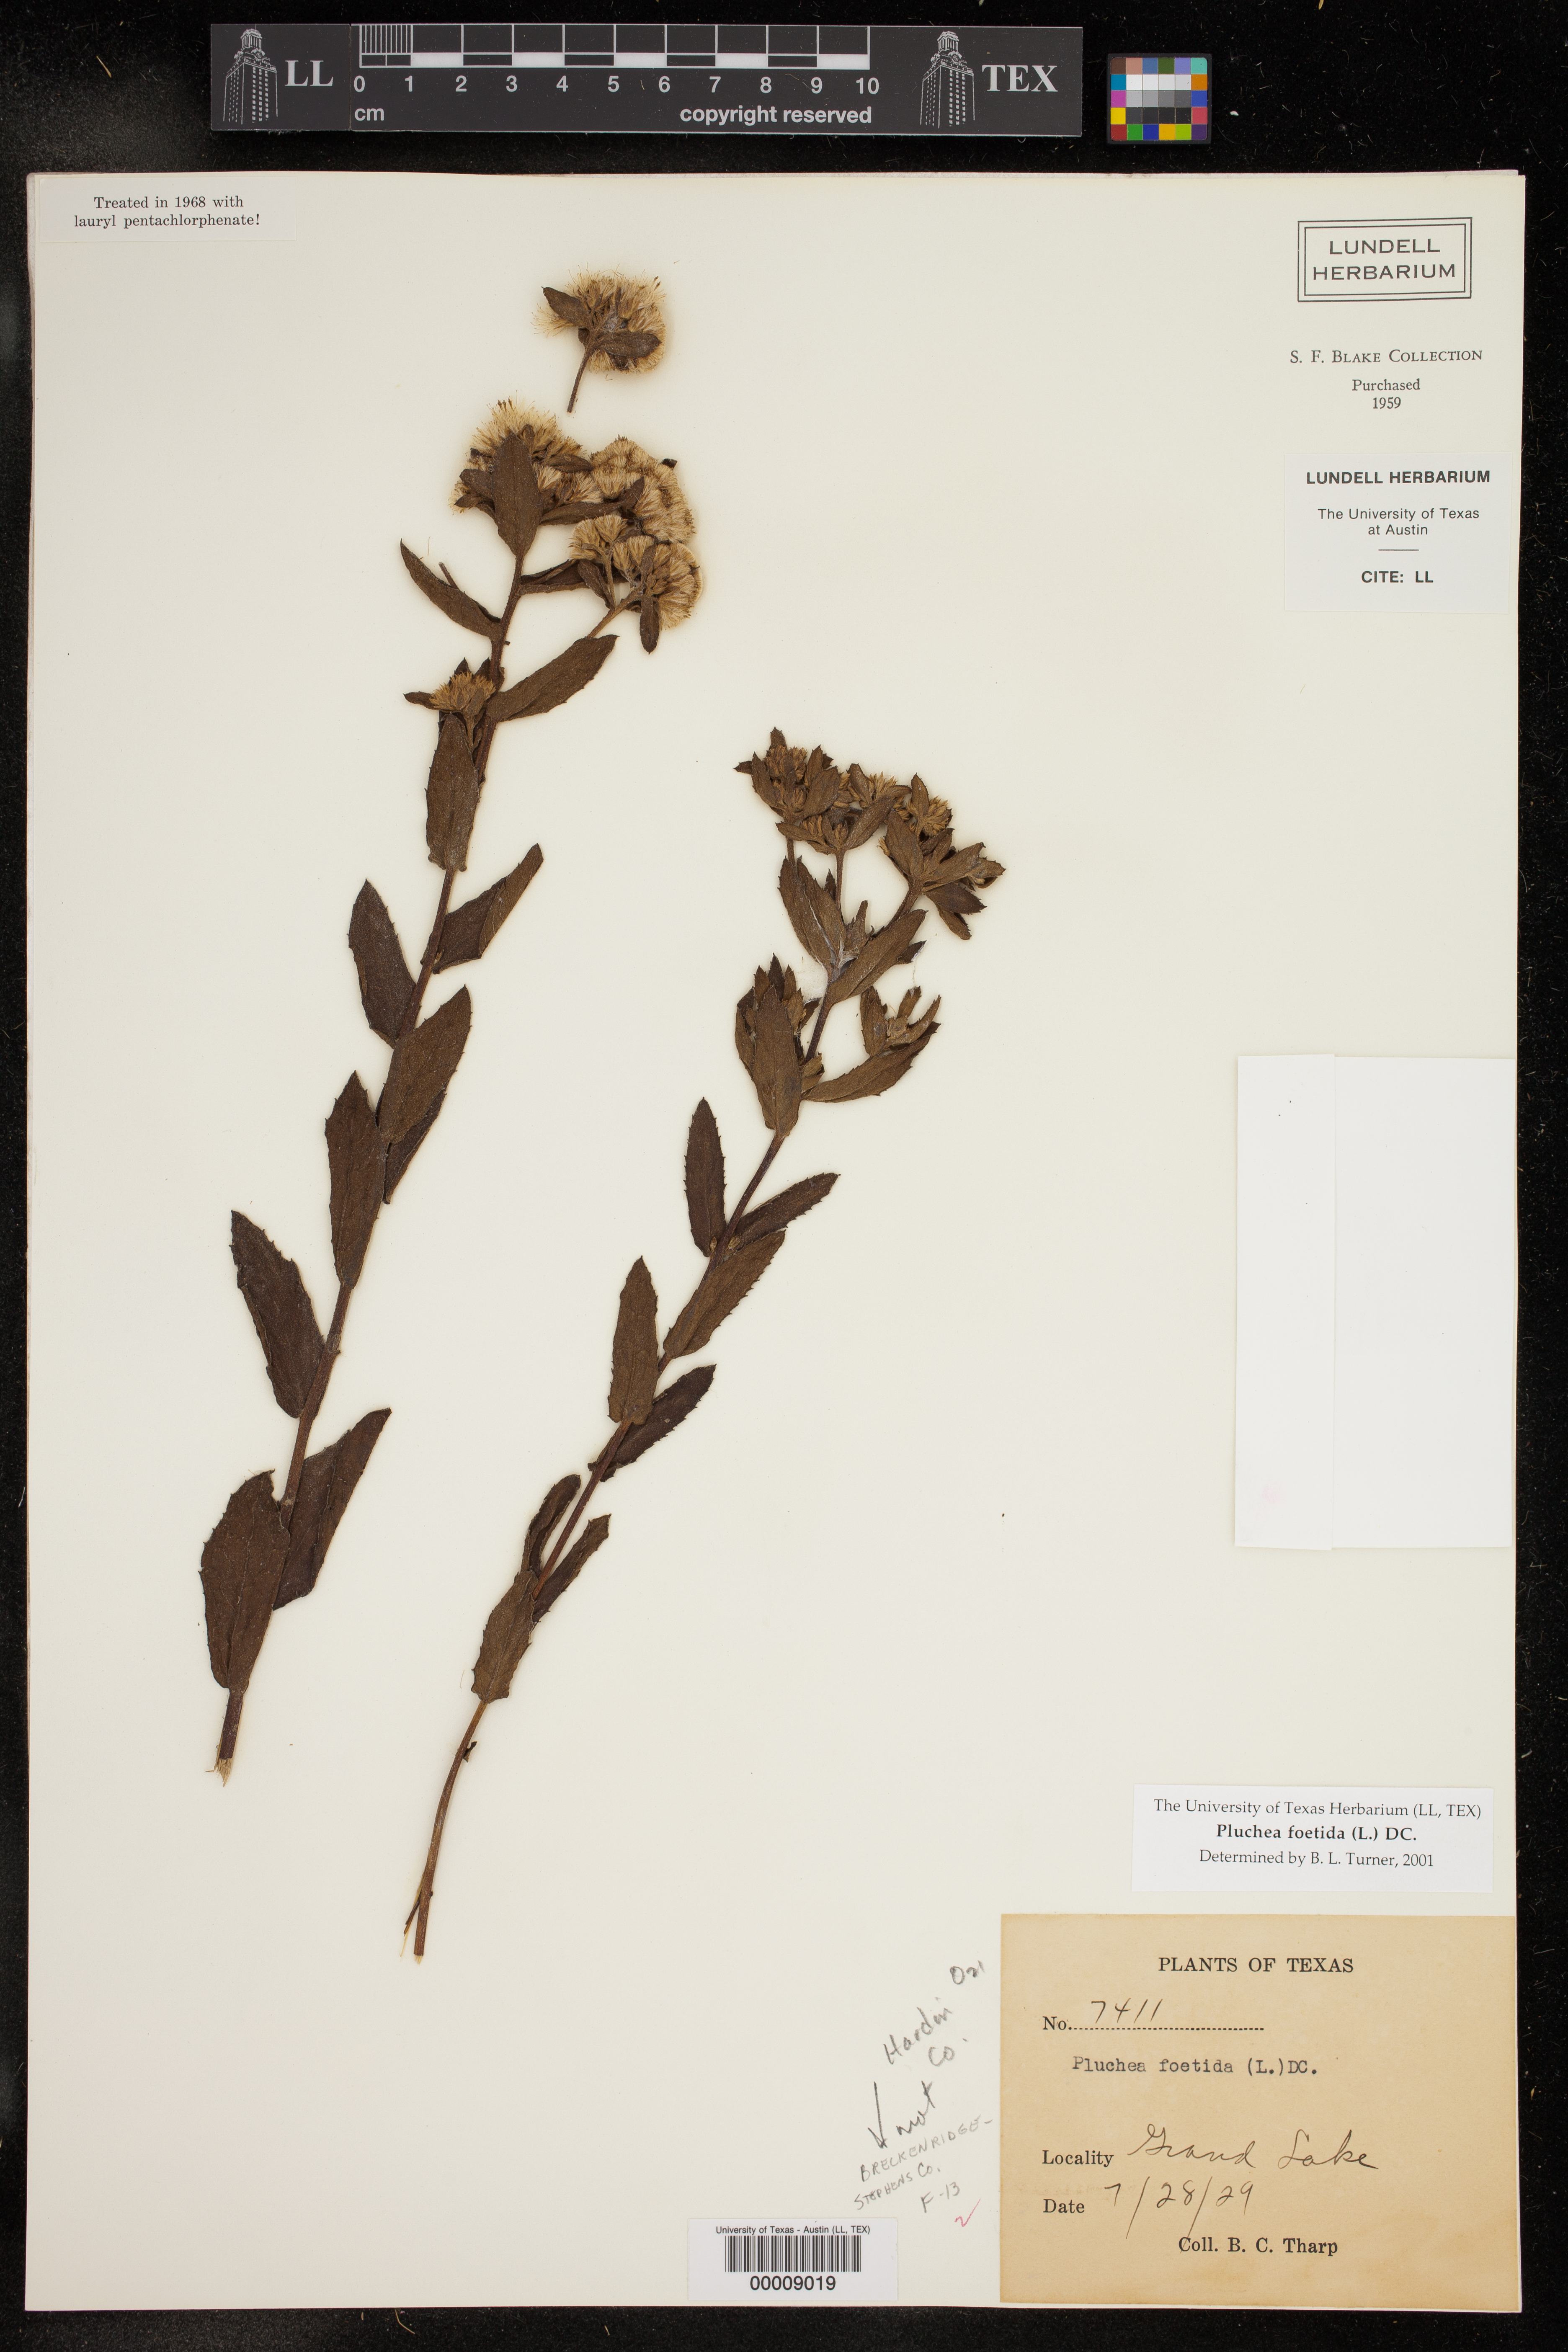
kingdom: Plantae
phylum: Tracheophyta
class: Magnoliopsida
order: Asterales
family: Asteraceae
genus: Pluchea
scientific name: Pluchea foetida
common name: Stinking camphorweed
